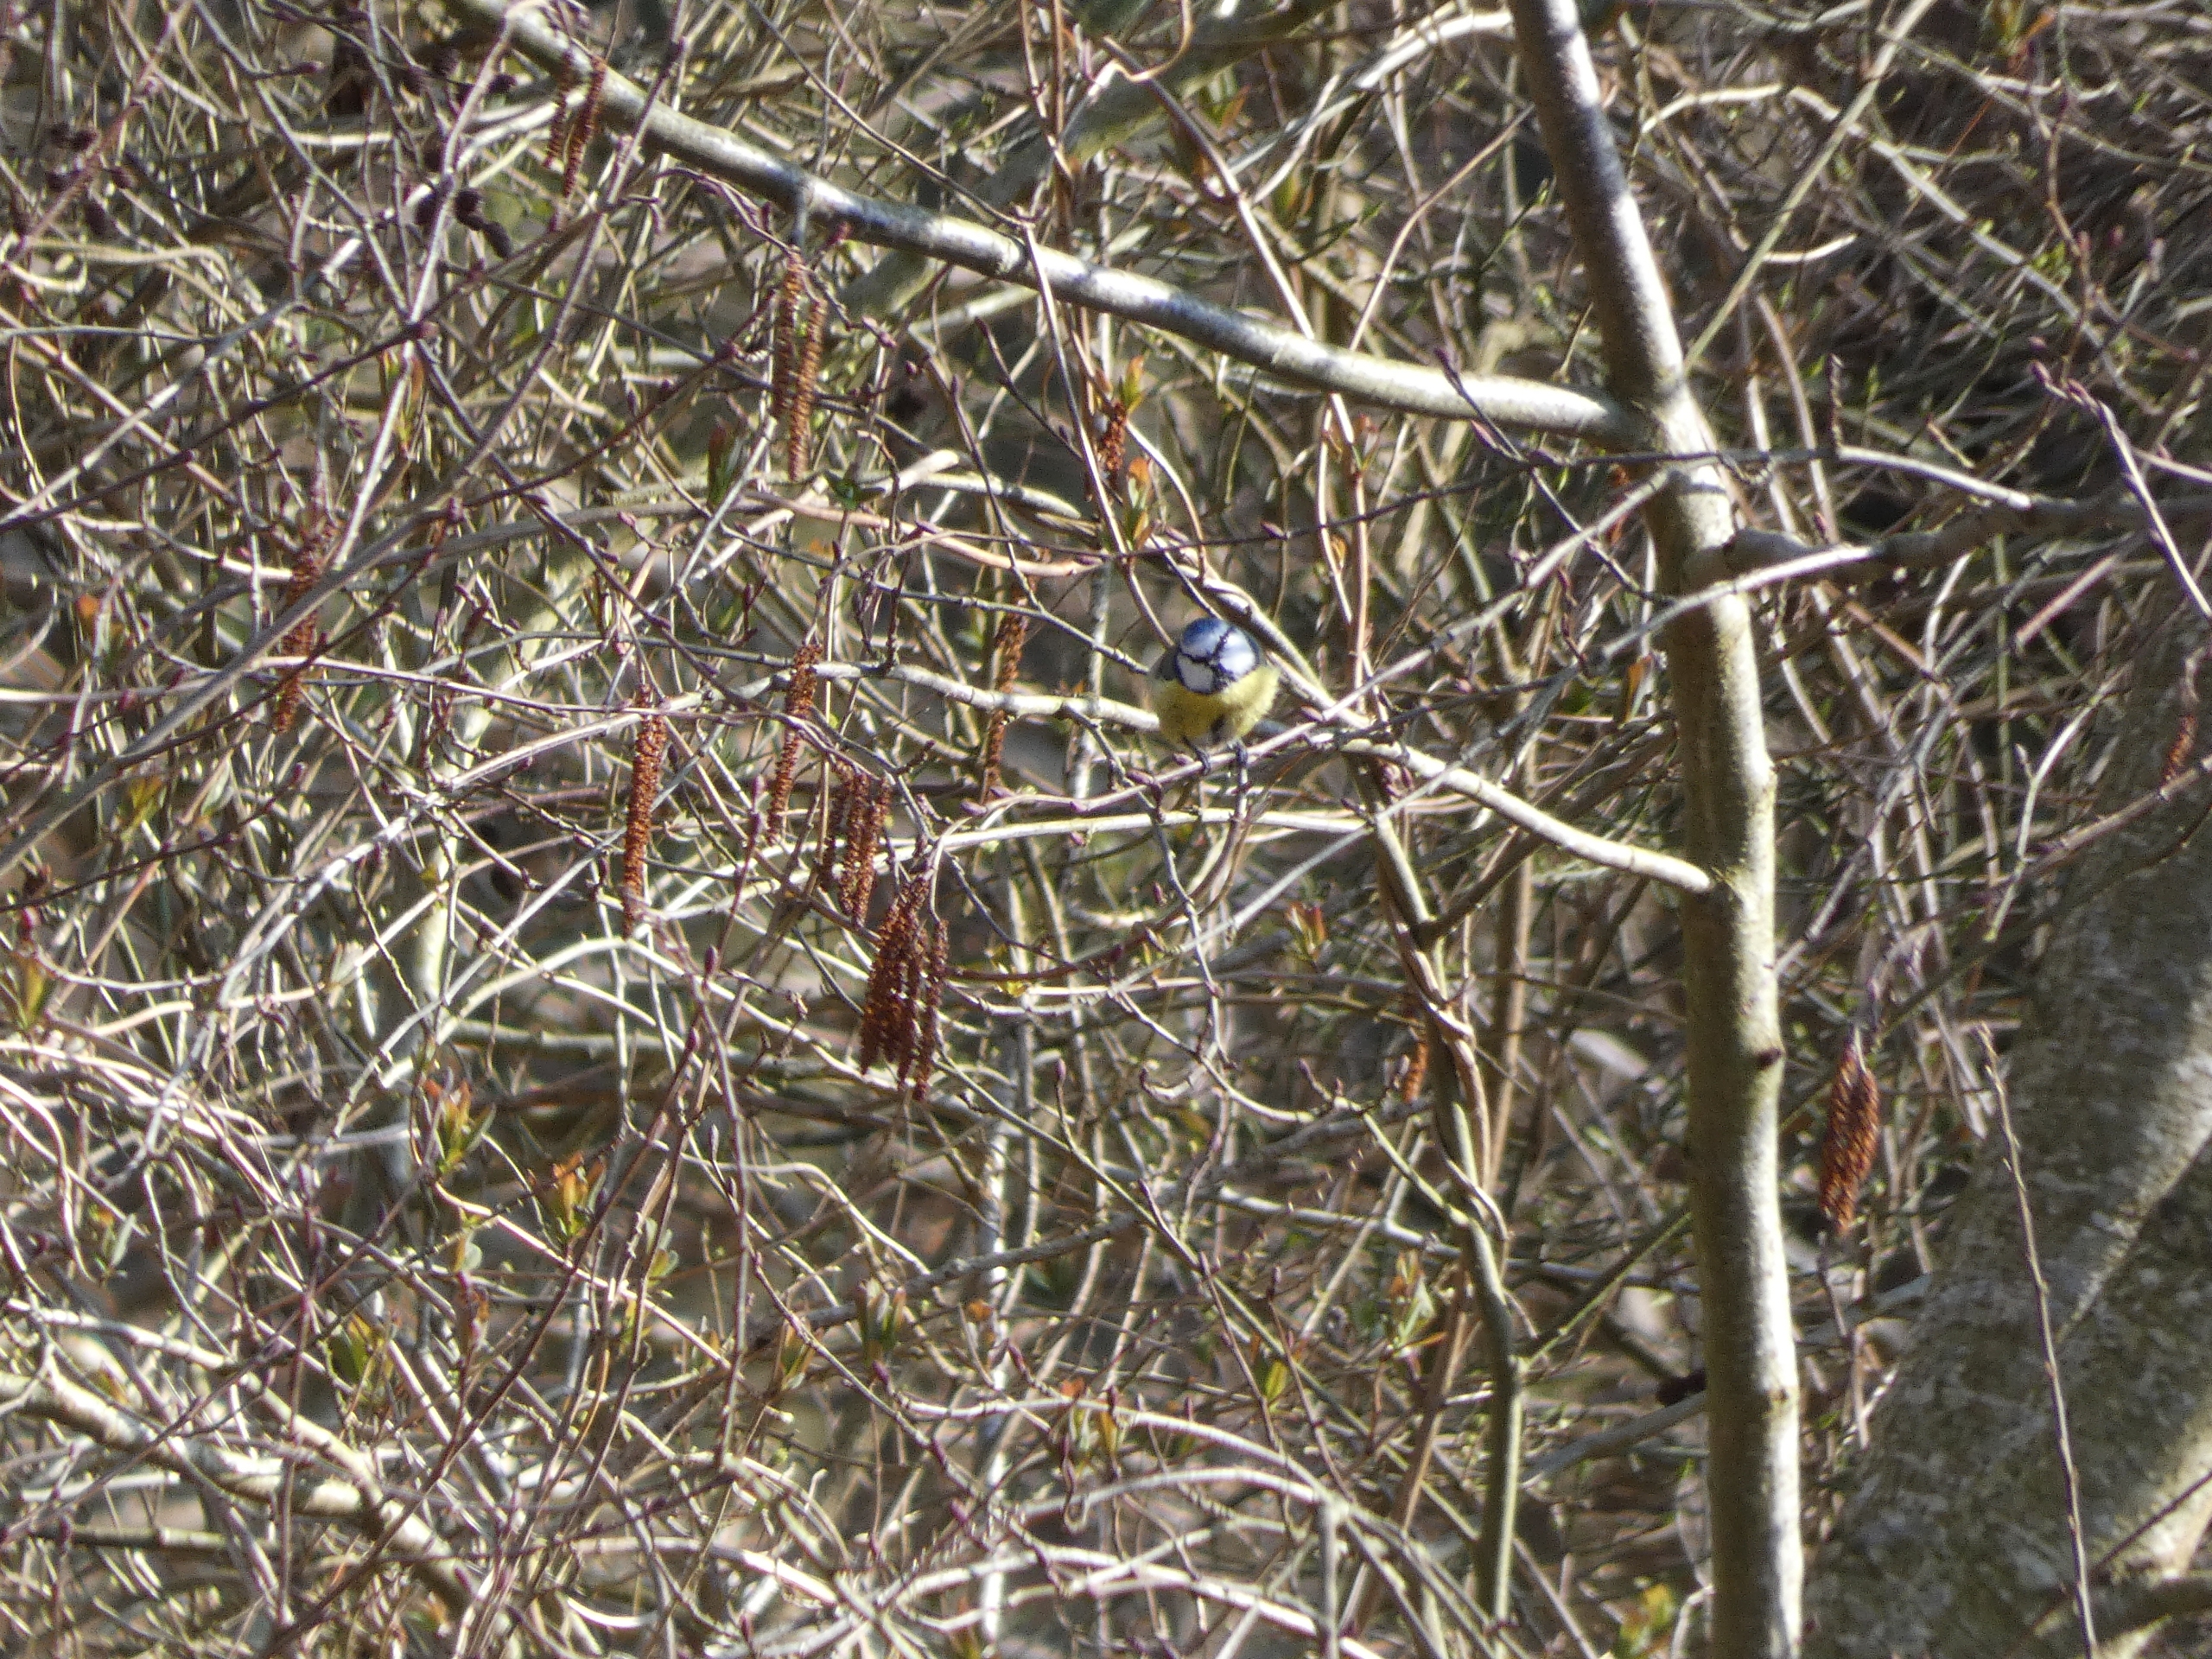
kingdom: Animalia
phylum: Chordata
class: Aves
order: Passeriformes
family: Paridae
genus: Cyanistes
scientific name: Cyanistes caeruleus
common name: Blåmejse
